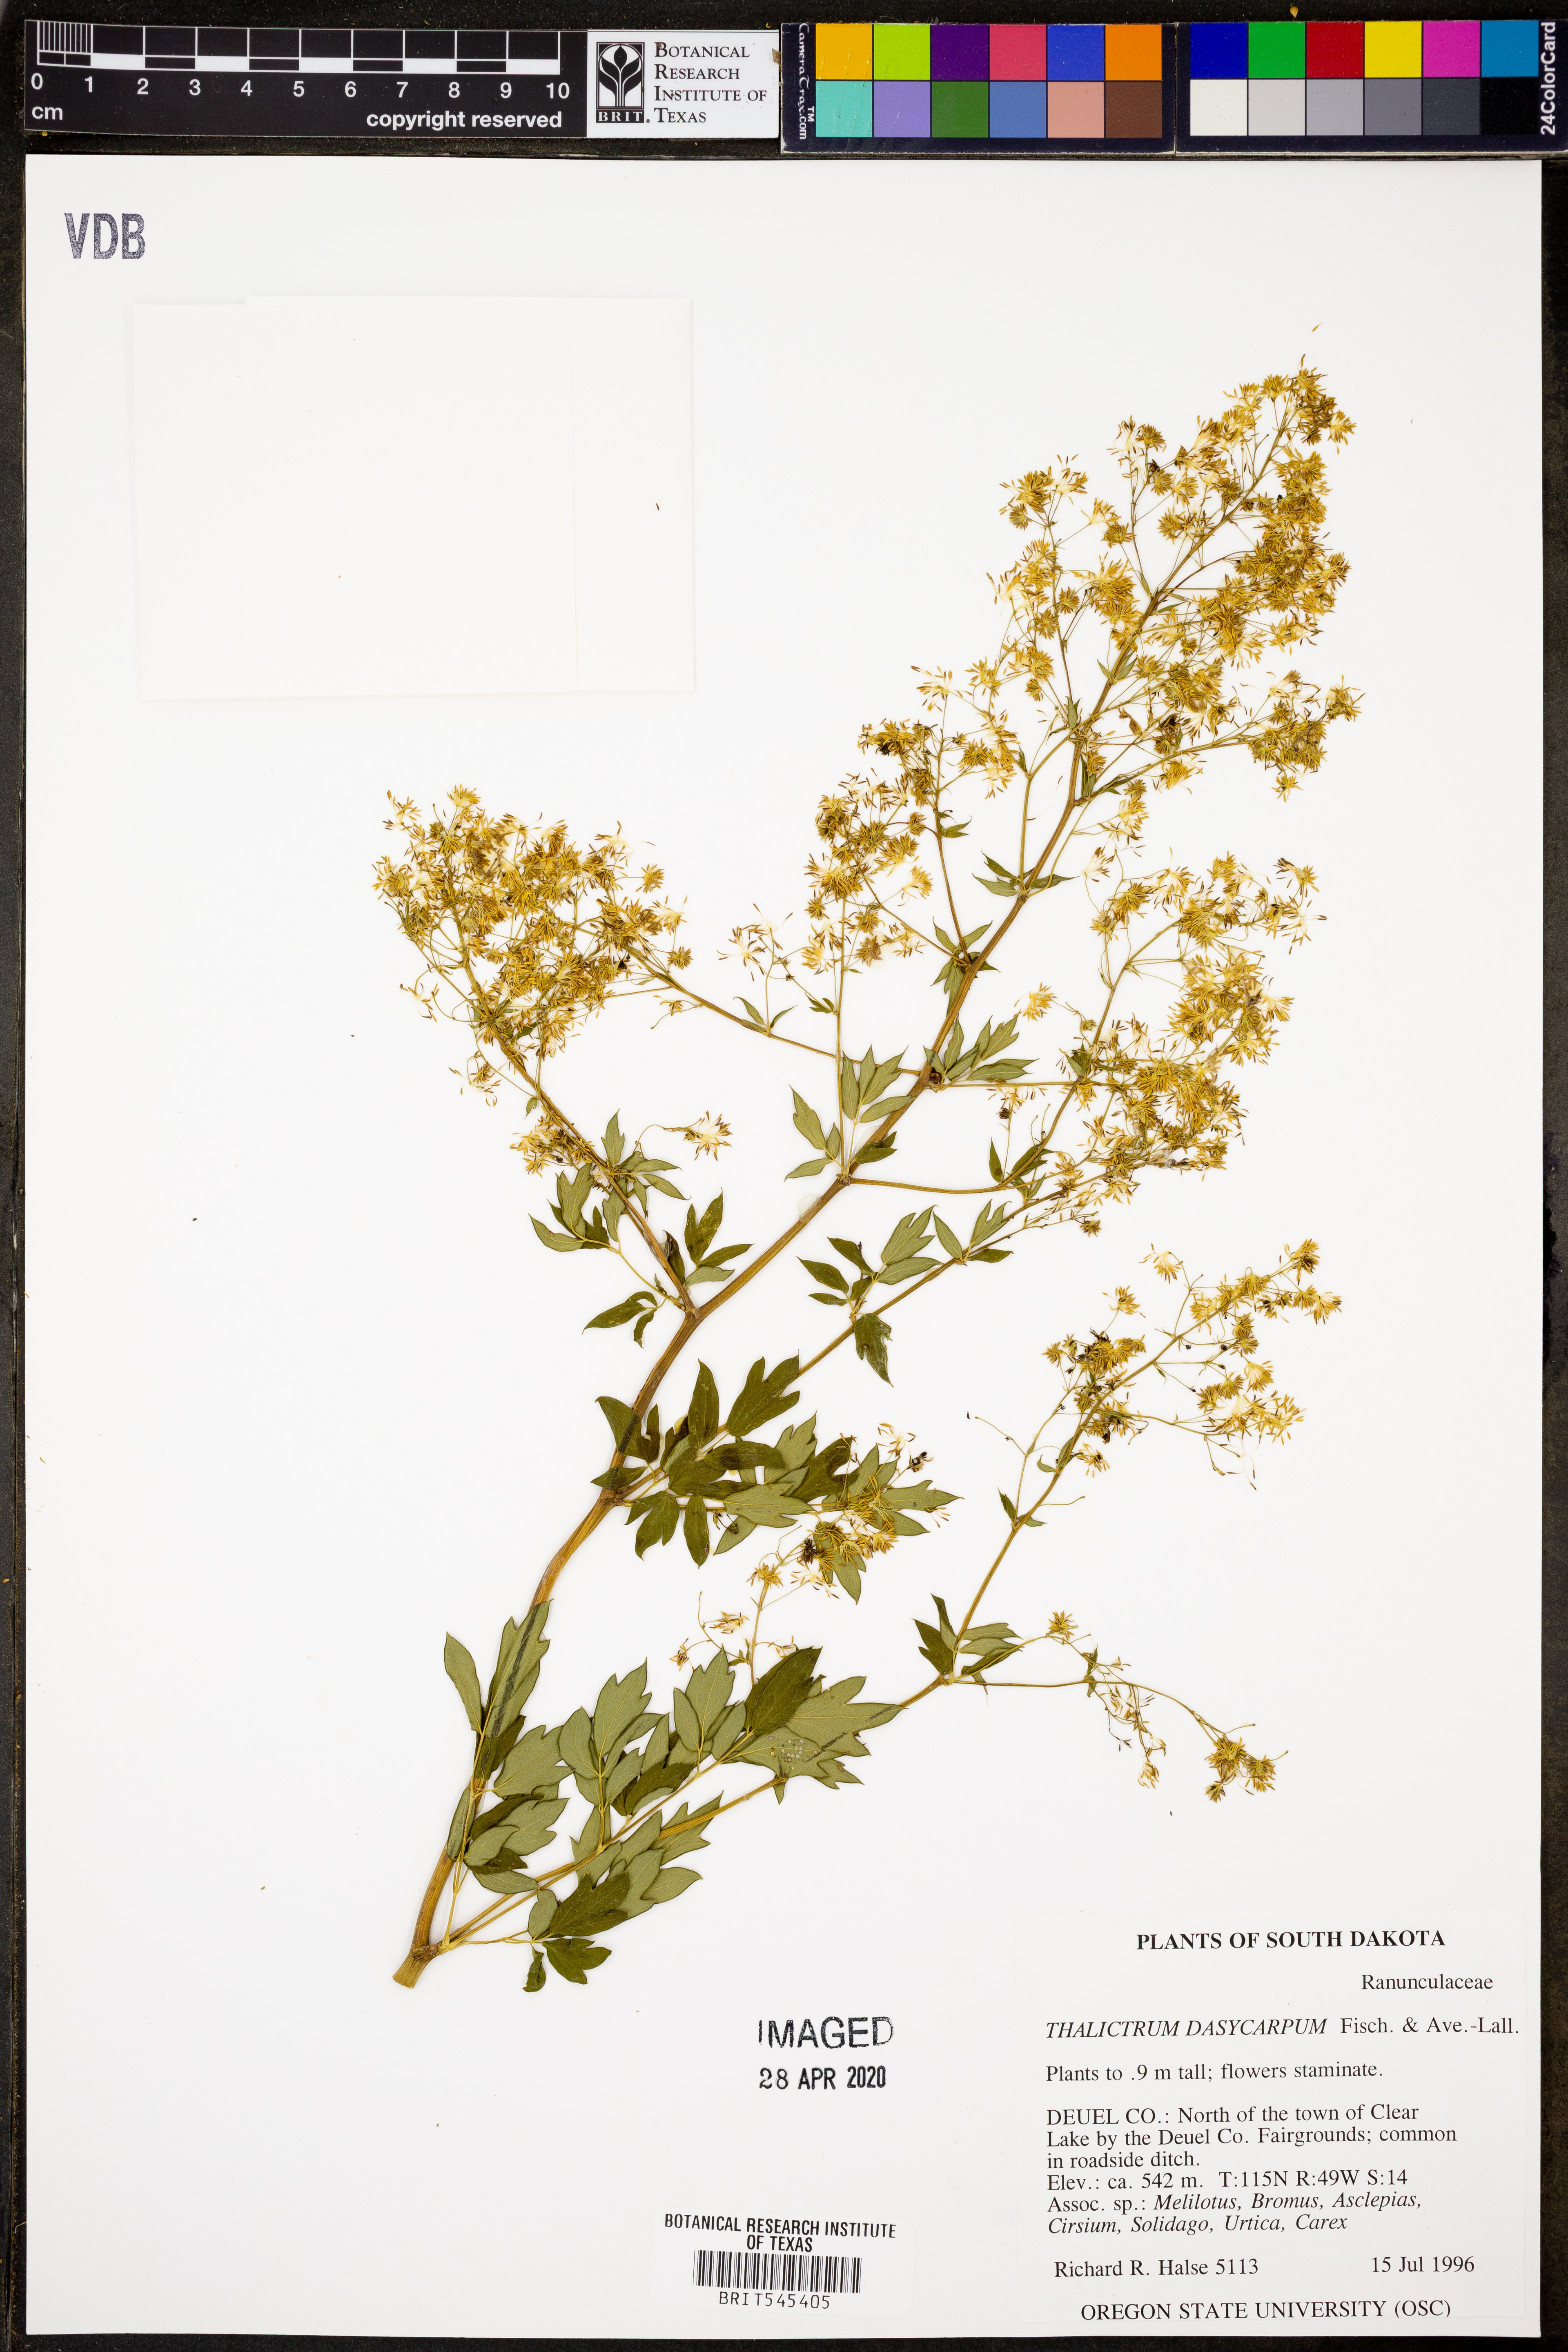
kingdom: Plantae
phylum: Tracheophyta
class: Magnoliopsida
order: Ranunculales
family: Ranunculaceae
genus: Thalictrum
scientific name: Thalictrum dasycarpum
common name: Purple meadow-rue
